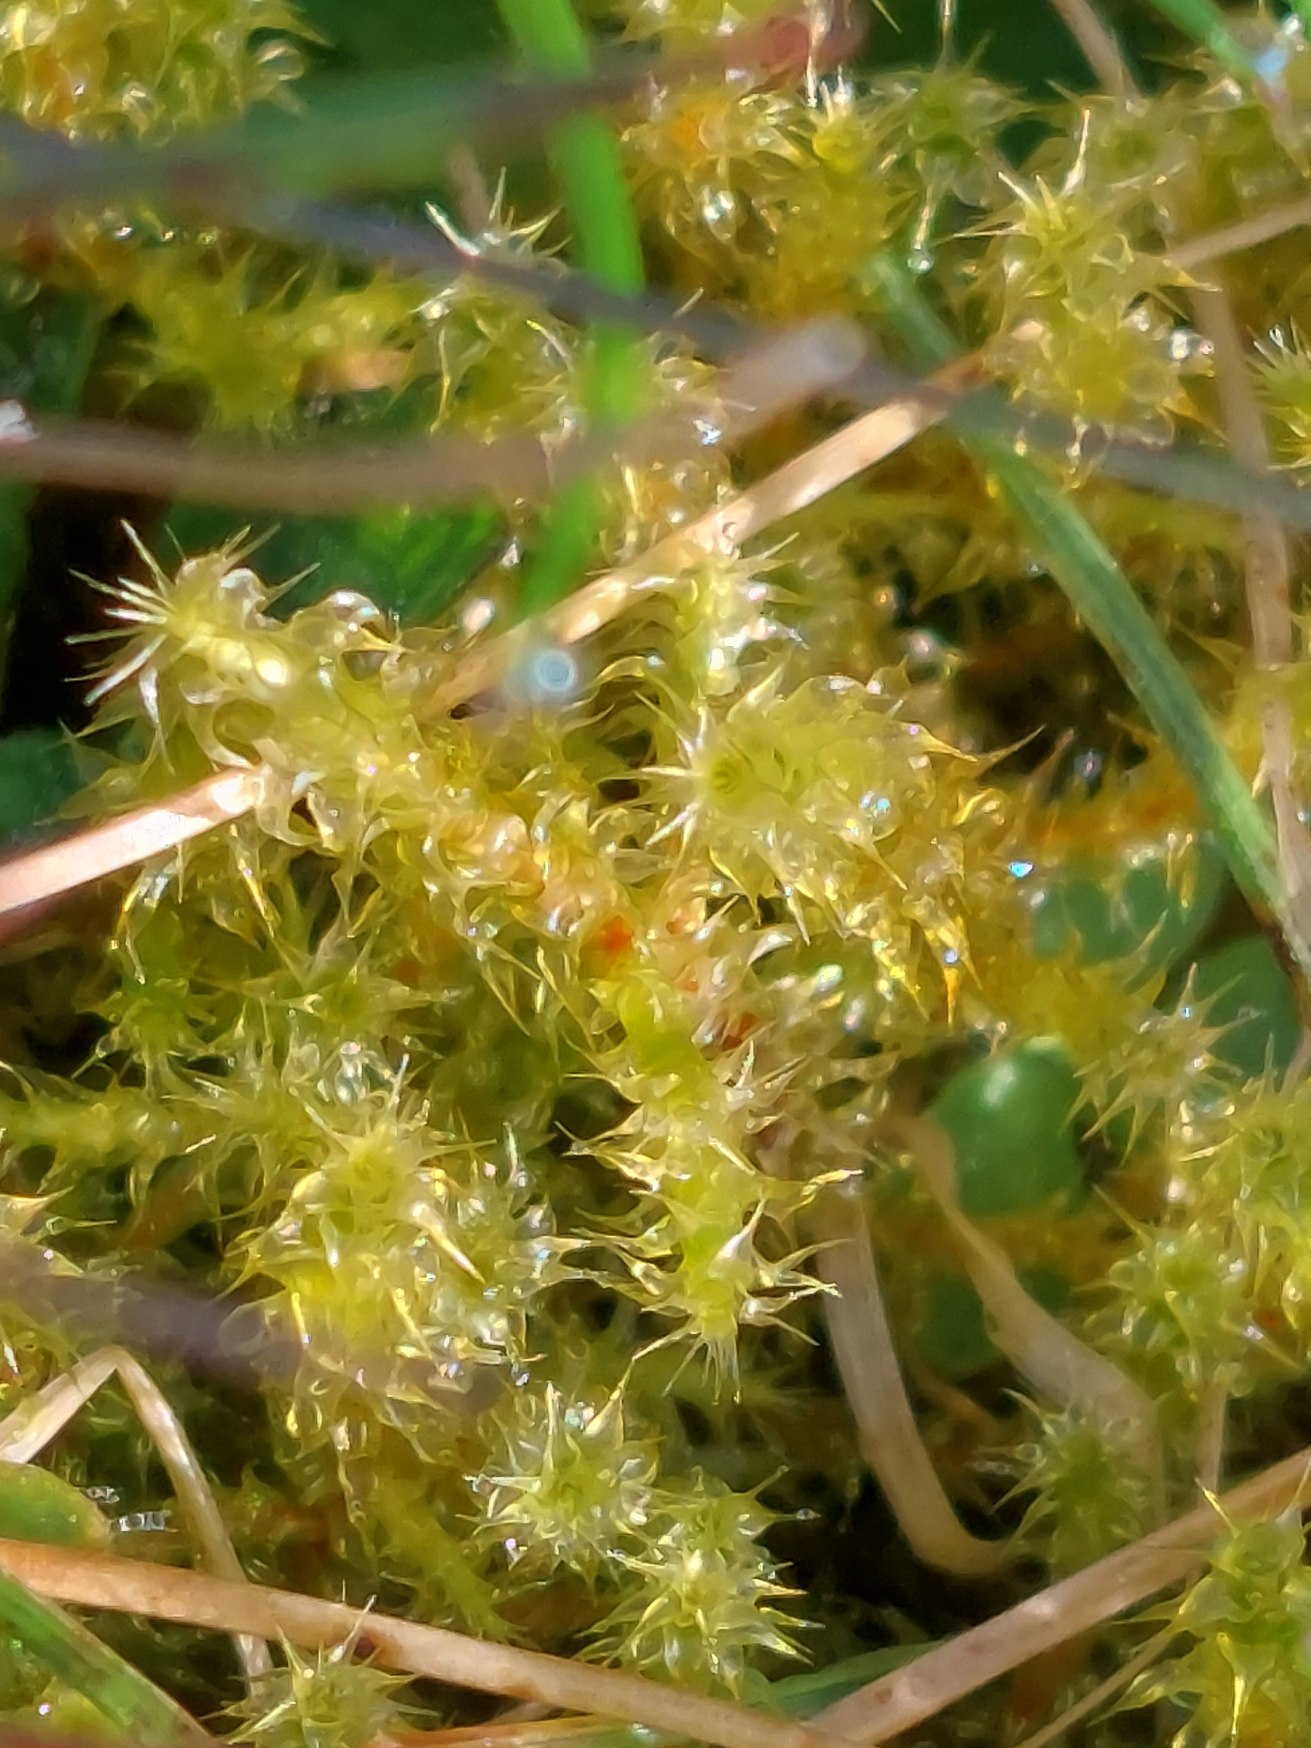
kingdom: Plantae
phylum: Bryophyta
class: Bryopsida
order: Hypnales
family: Hylocomiaceae
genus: Rhytidiadelphus
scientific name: Rhytidiadelphus squarrosus
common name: Plæne-kransemos
